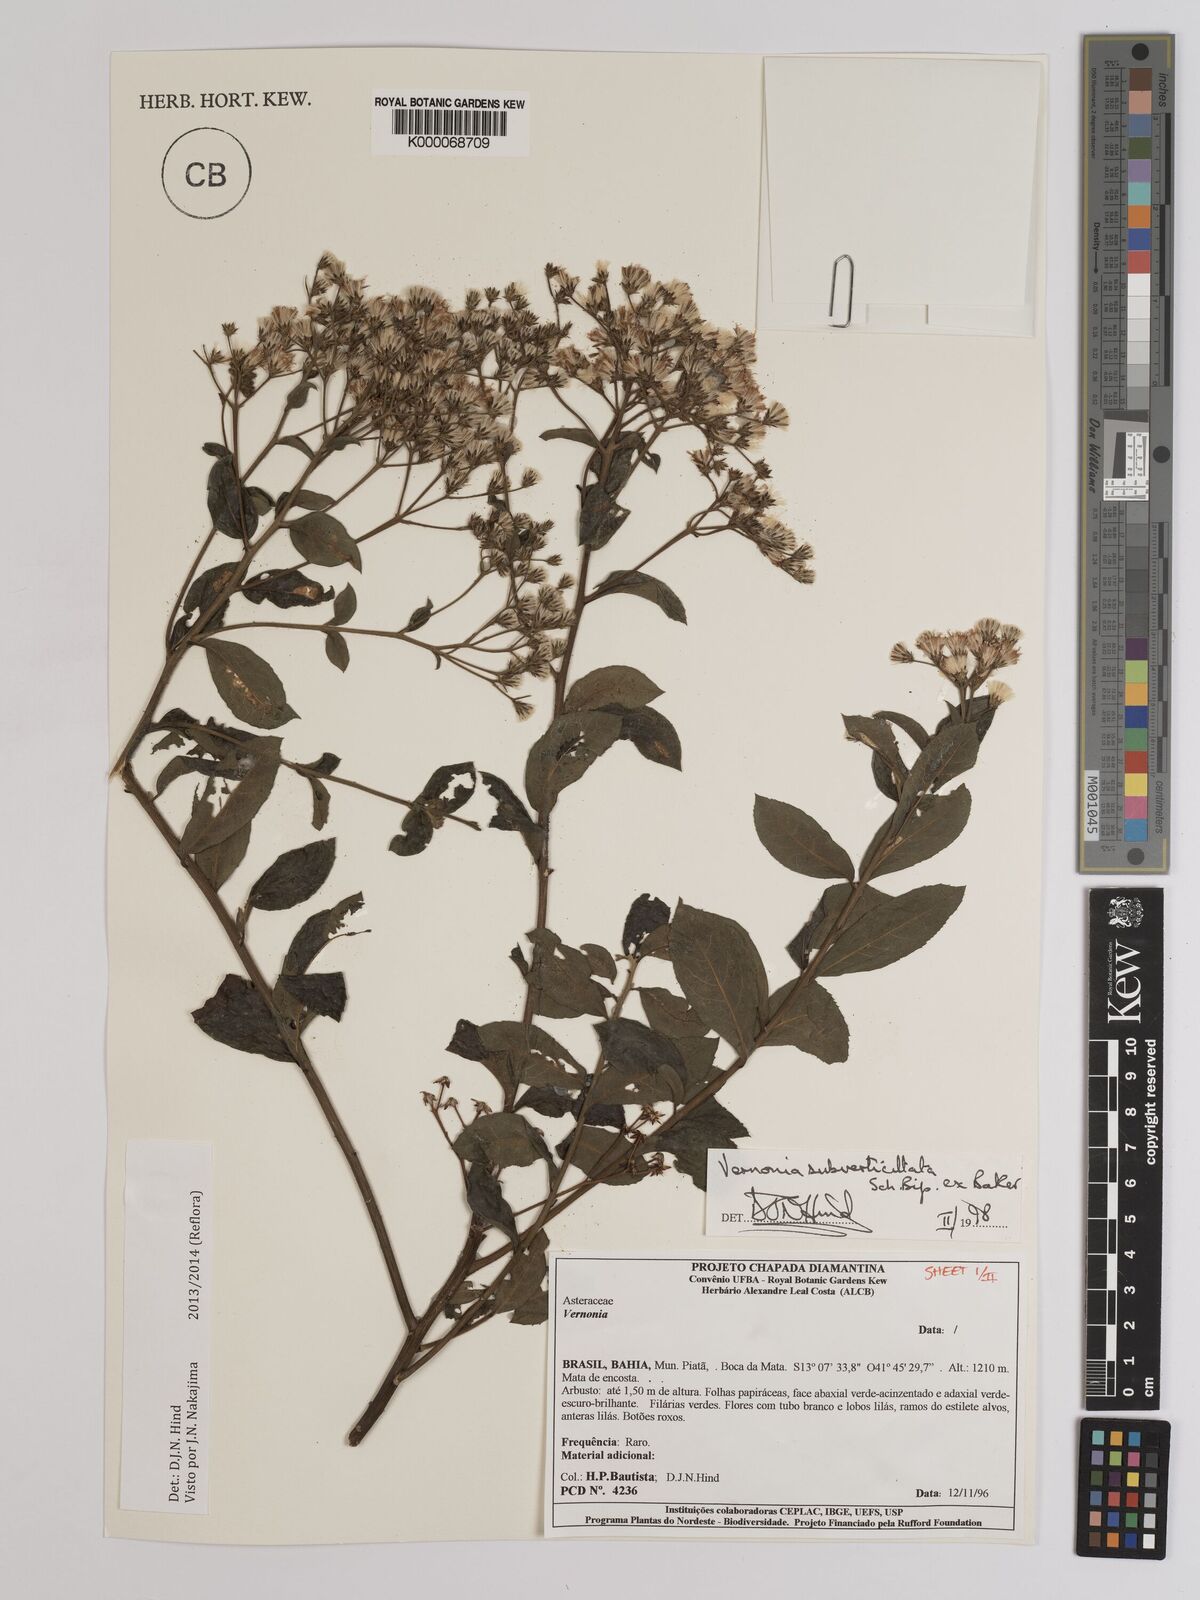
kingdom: Plantae
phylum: Tracheophyta
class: Magnoliopsida
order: Asterales
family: Asteraceae
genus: Vernonia
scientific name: Vernonia
